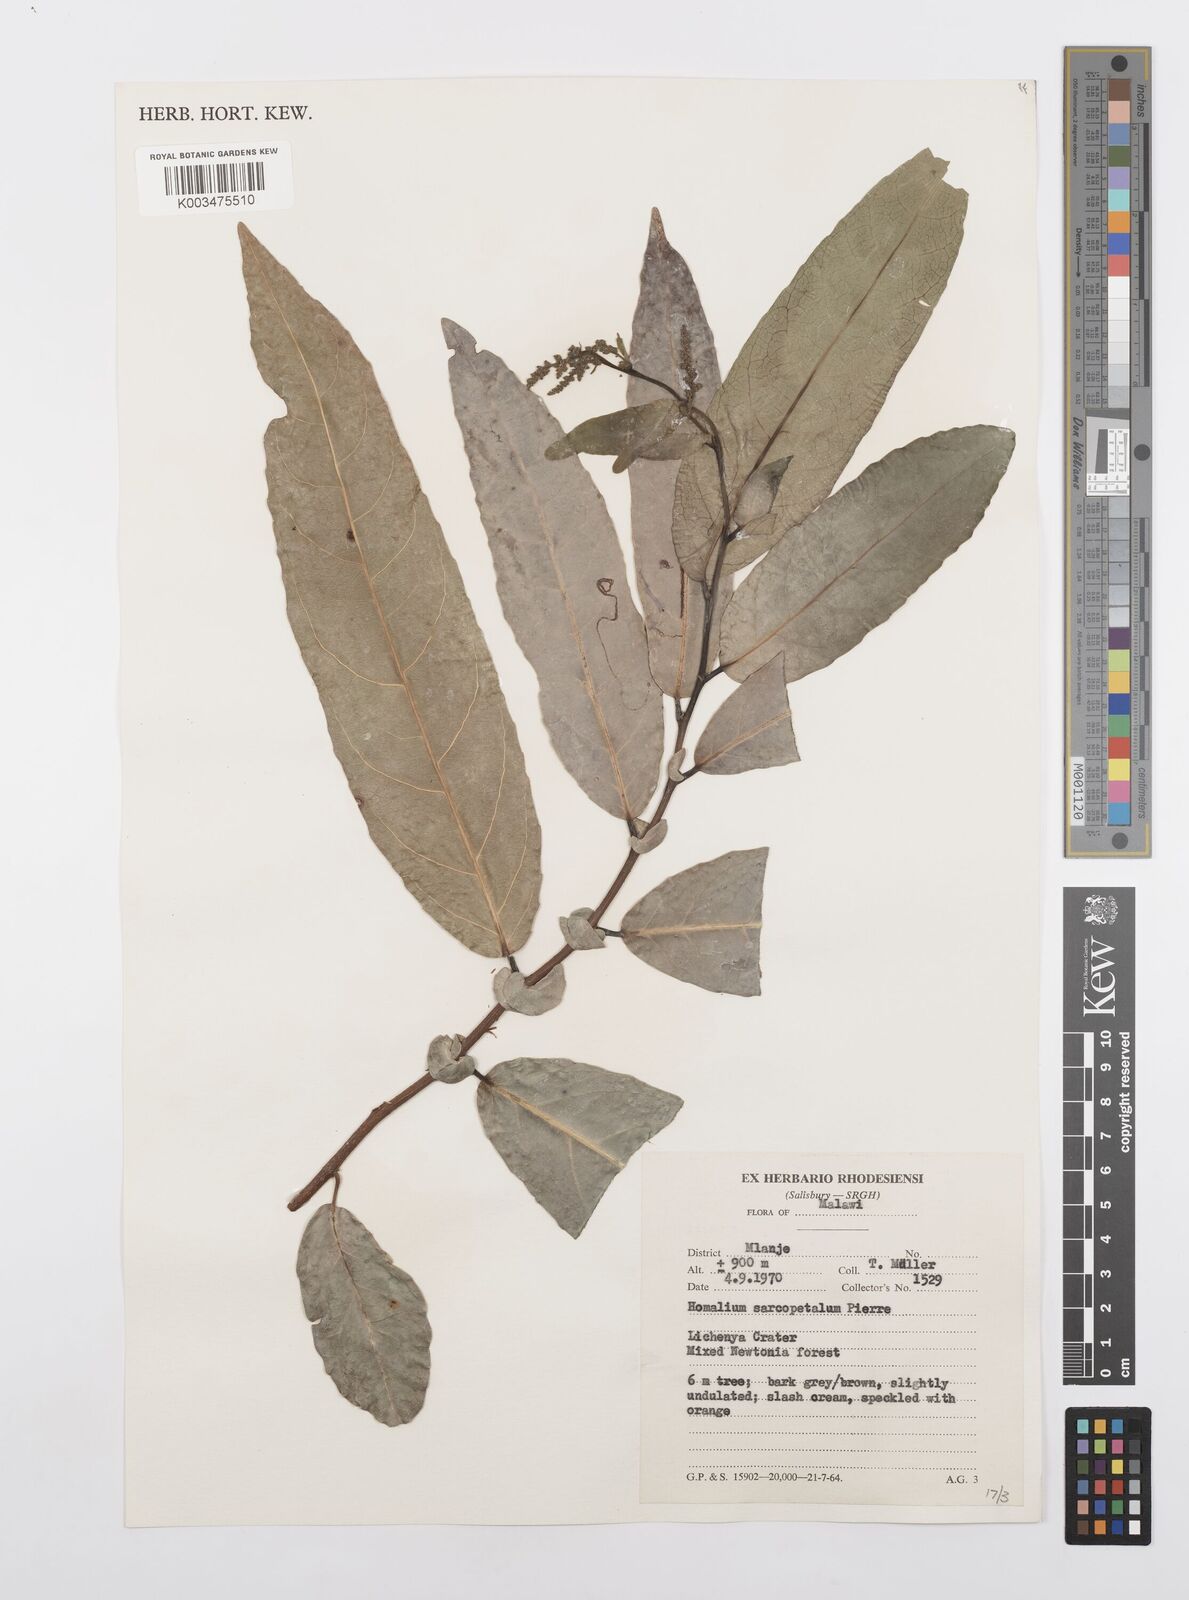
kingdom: Plantae
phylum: Tracheophyta
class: Magnoliopsida
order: Malpighiales
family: Salicaceae
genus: Homalium
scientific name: Homalium africanum
